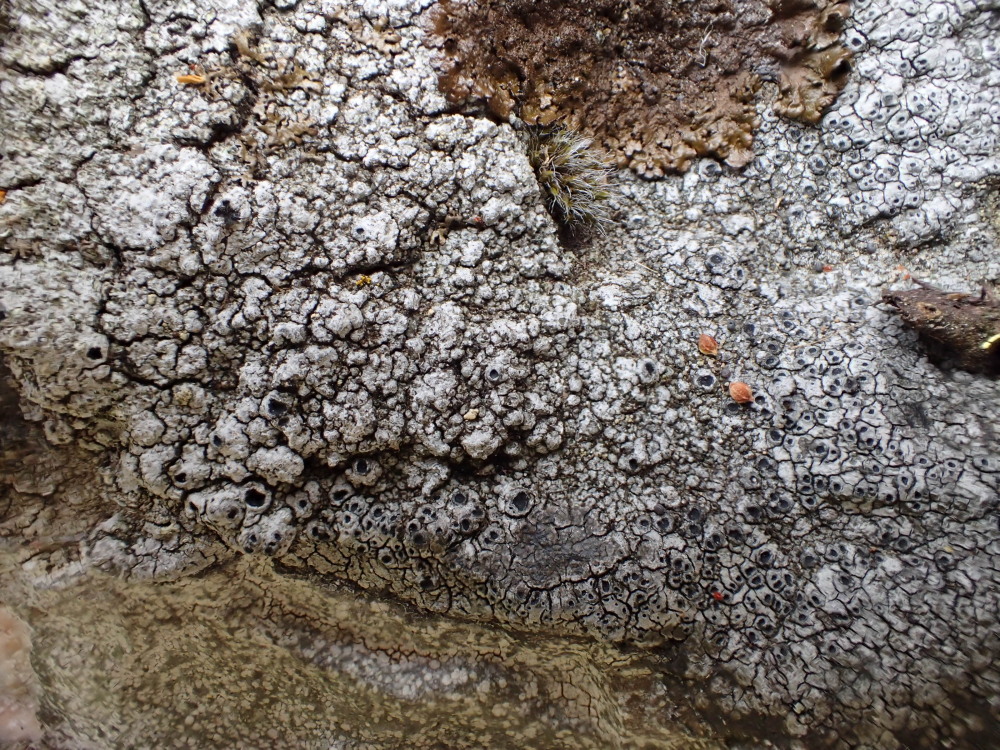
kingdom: Fungi
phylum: Ascomycota
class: Lecanoromycetes
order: Pertusariales
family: Megasporaceae
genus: Circinaria
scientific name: Circinaria caesiocinerea
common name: fuglestens-hulskivelav
